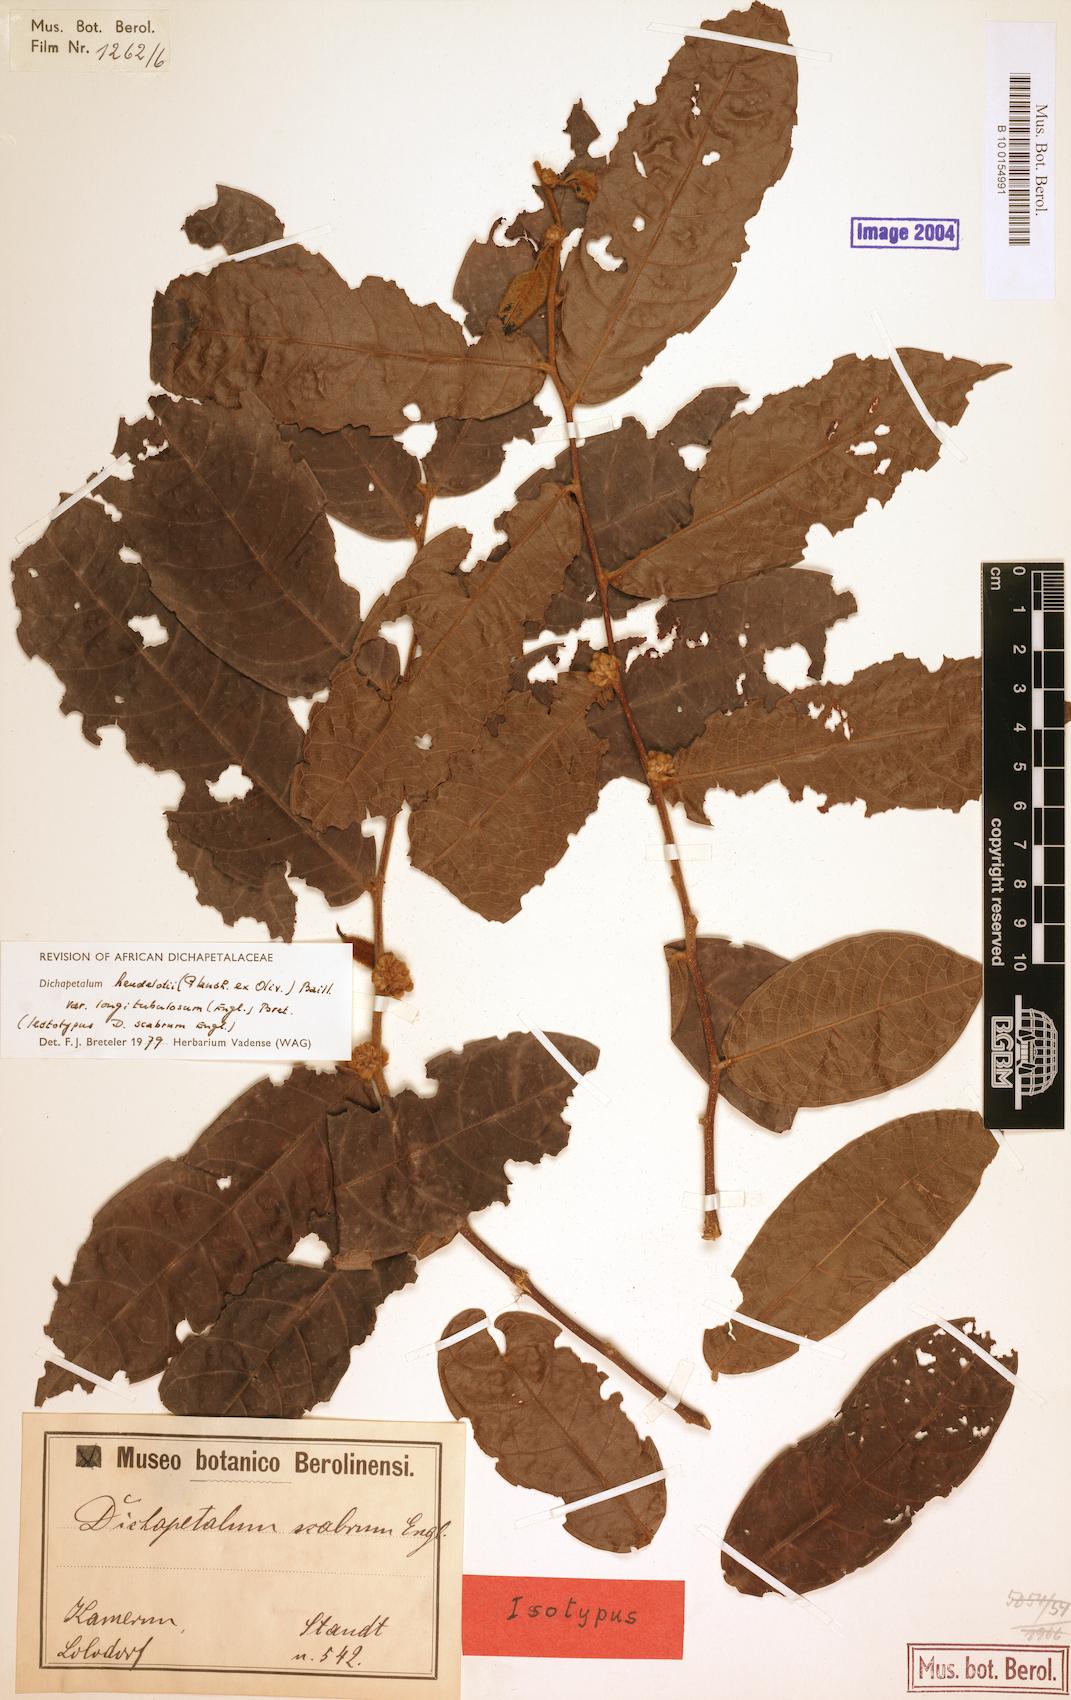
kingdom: Plantae
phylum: Tracheophyta
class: Magnoliopsida
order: Malpighiales
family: Dichapetalaceae
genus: Dichapetalum
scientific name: Dichapetalum heudelotii
